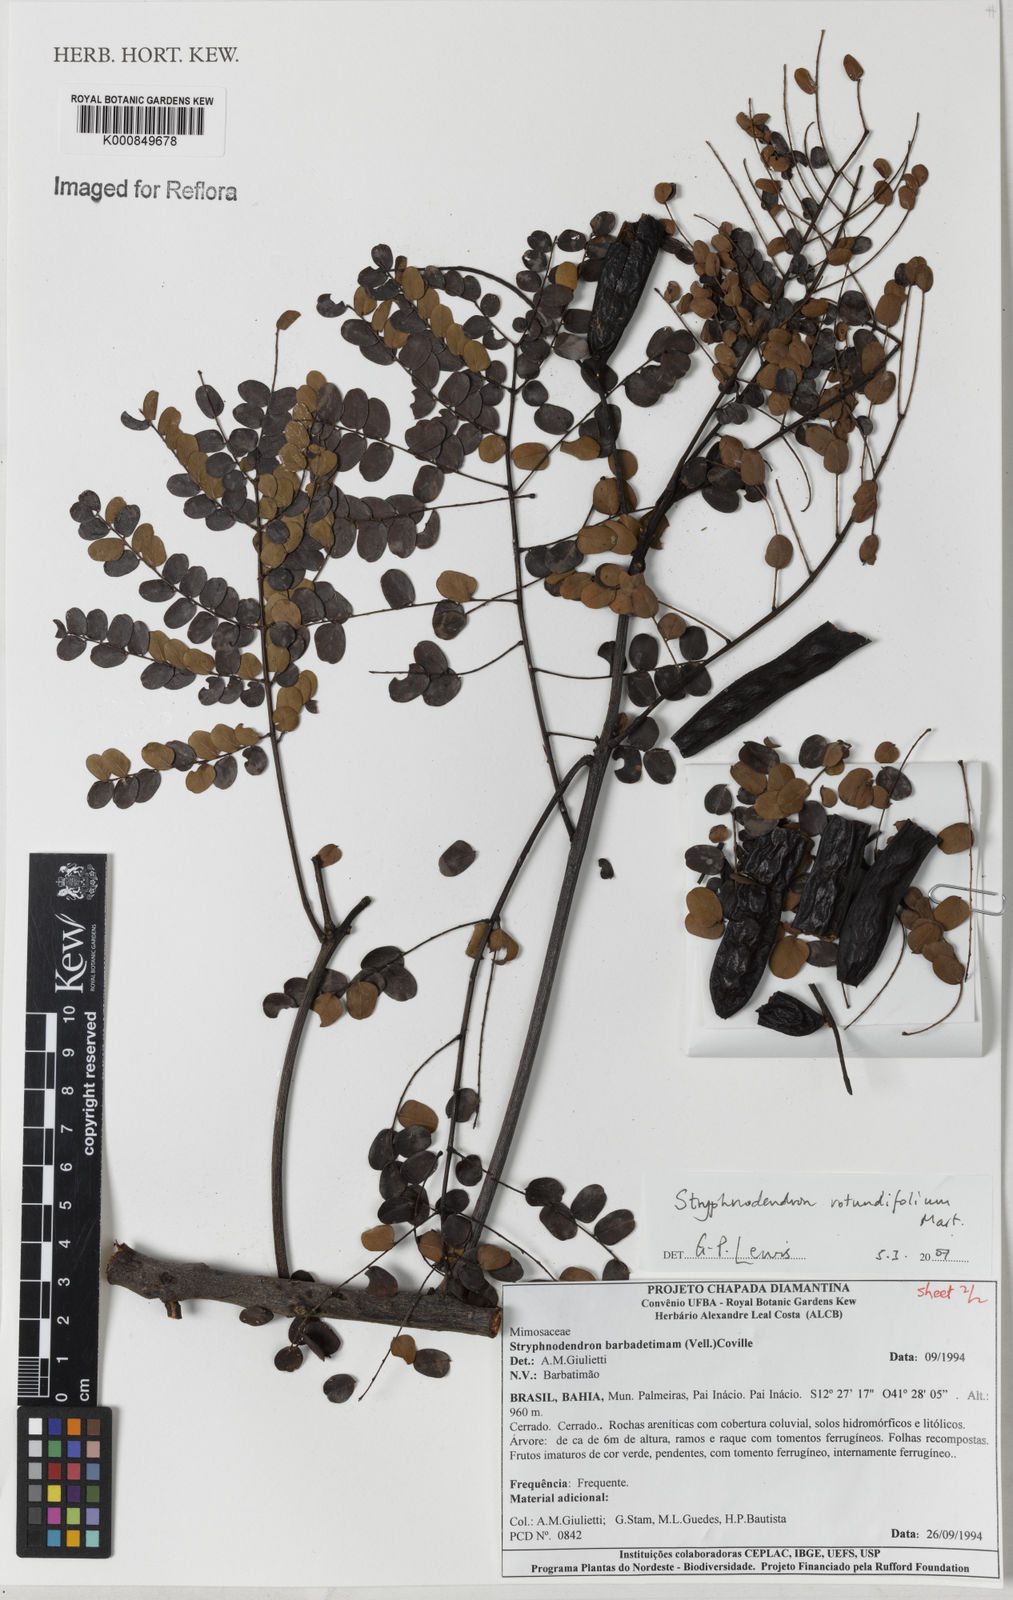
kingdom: Plantae
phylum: Tracheophyta
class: Magnoliopsida
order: Fabales
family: Fabaceae
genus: Stryphnodendron
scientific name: Stryphnodendron rotundifolium
